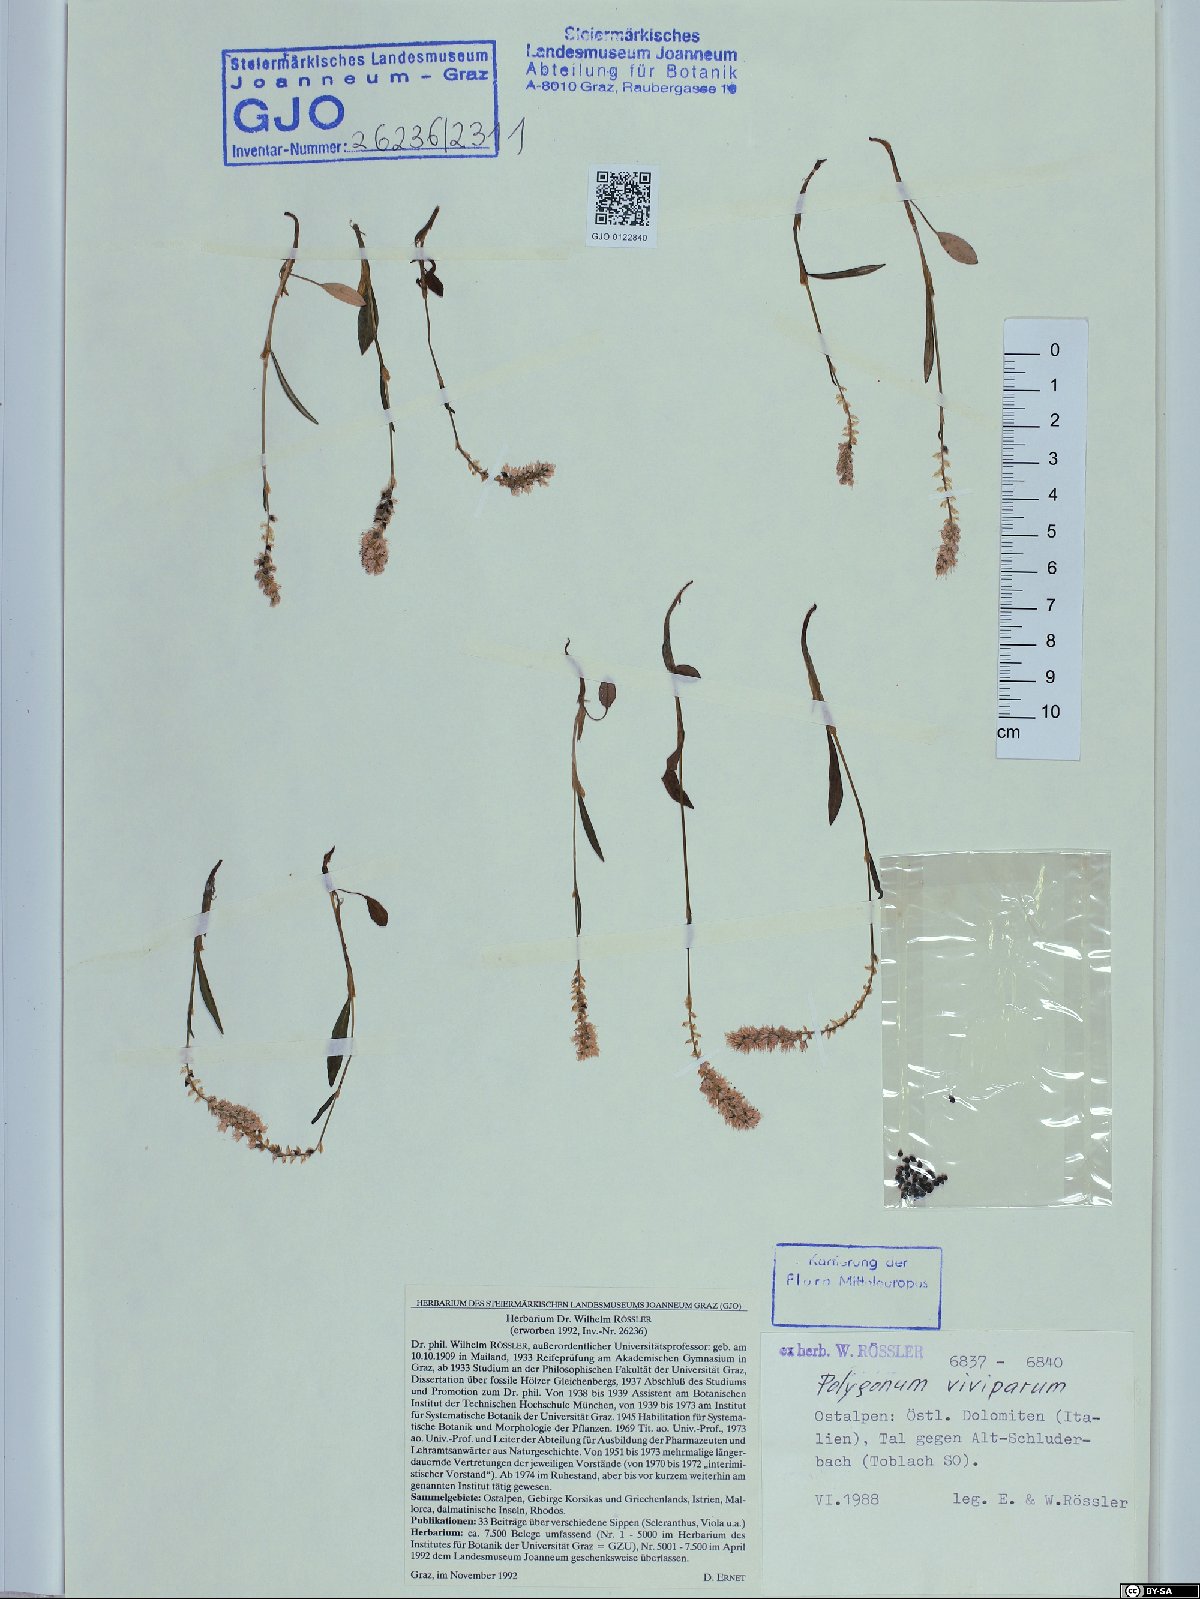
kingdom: Plantae
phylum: Tracheophyta
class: Magnoliopsida
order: Caryophyllales
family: Polygonaceae
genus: Bistorta
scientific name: Bistorta vivipara
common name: Alpine bistort
